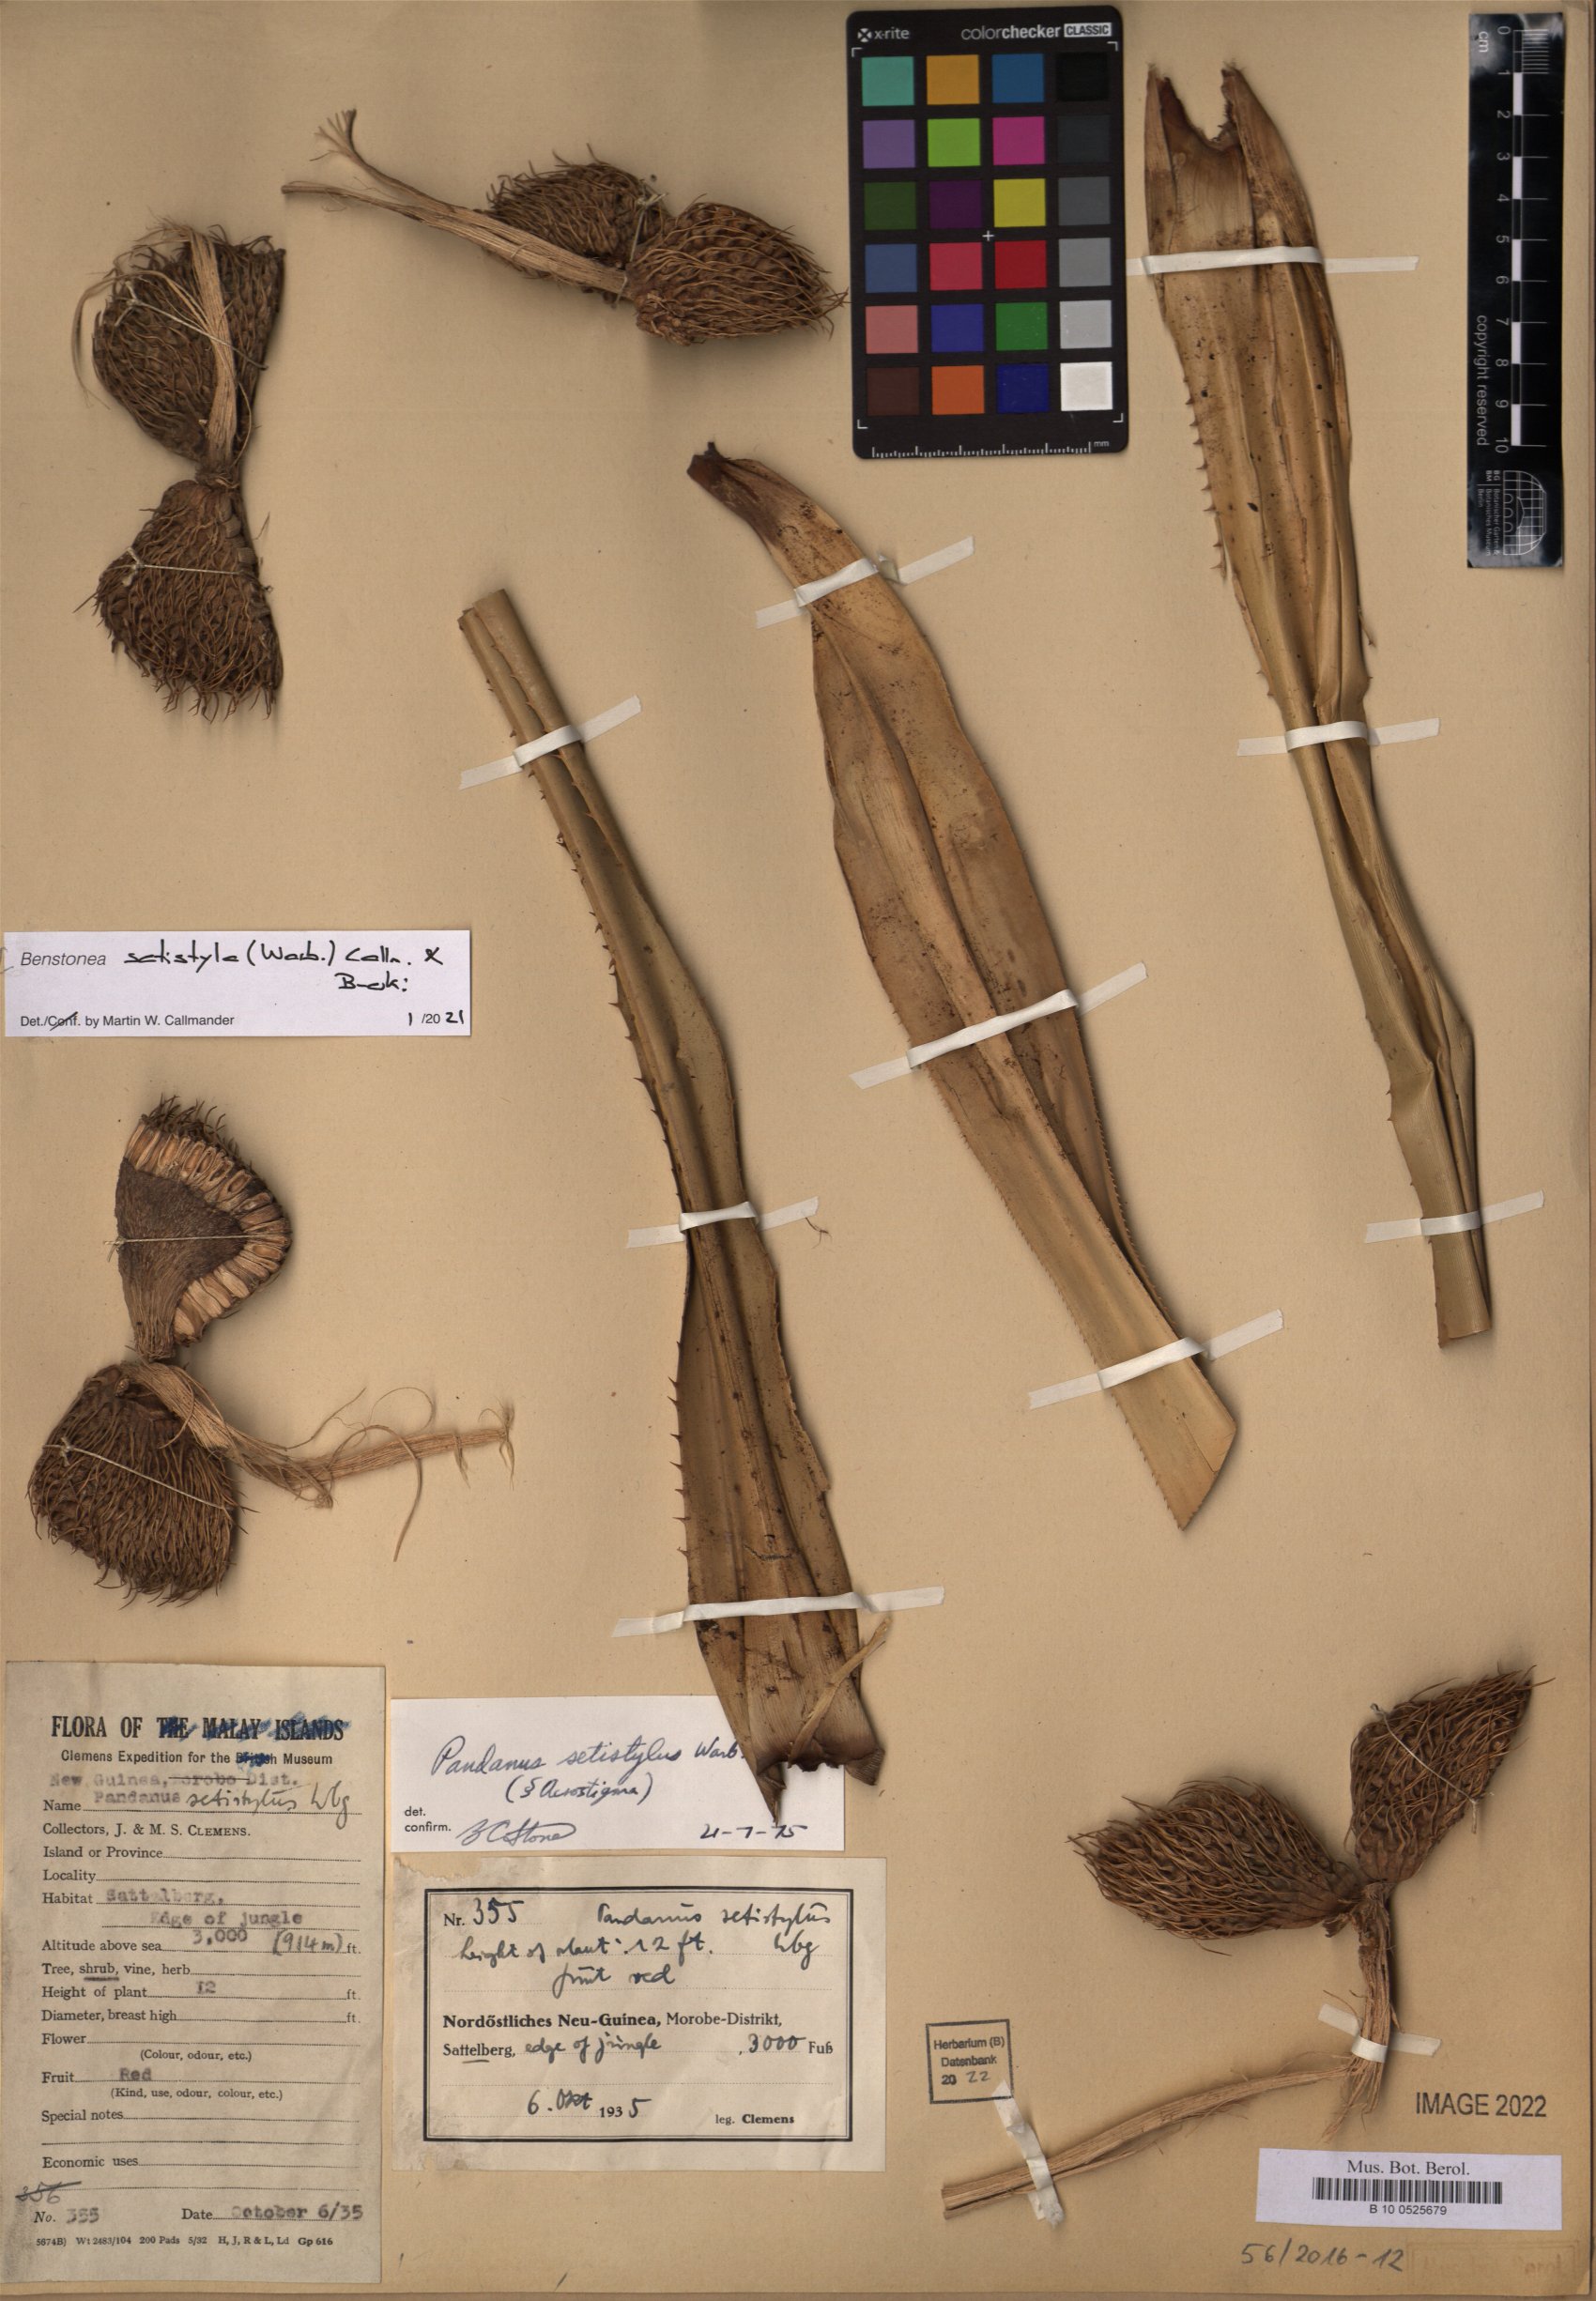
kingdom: Plantae
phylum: Tracheophyta
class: Liliopsida
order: Pandanales
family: Pandanaceae
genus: Benstonea
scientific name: Benstonea setistyla
